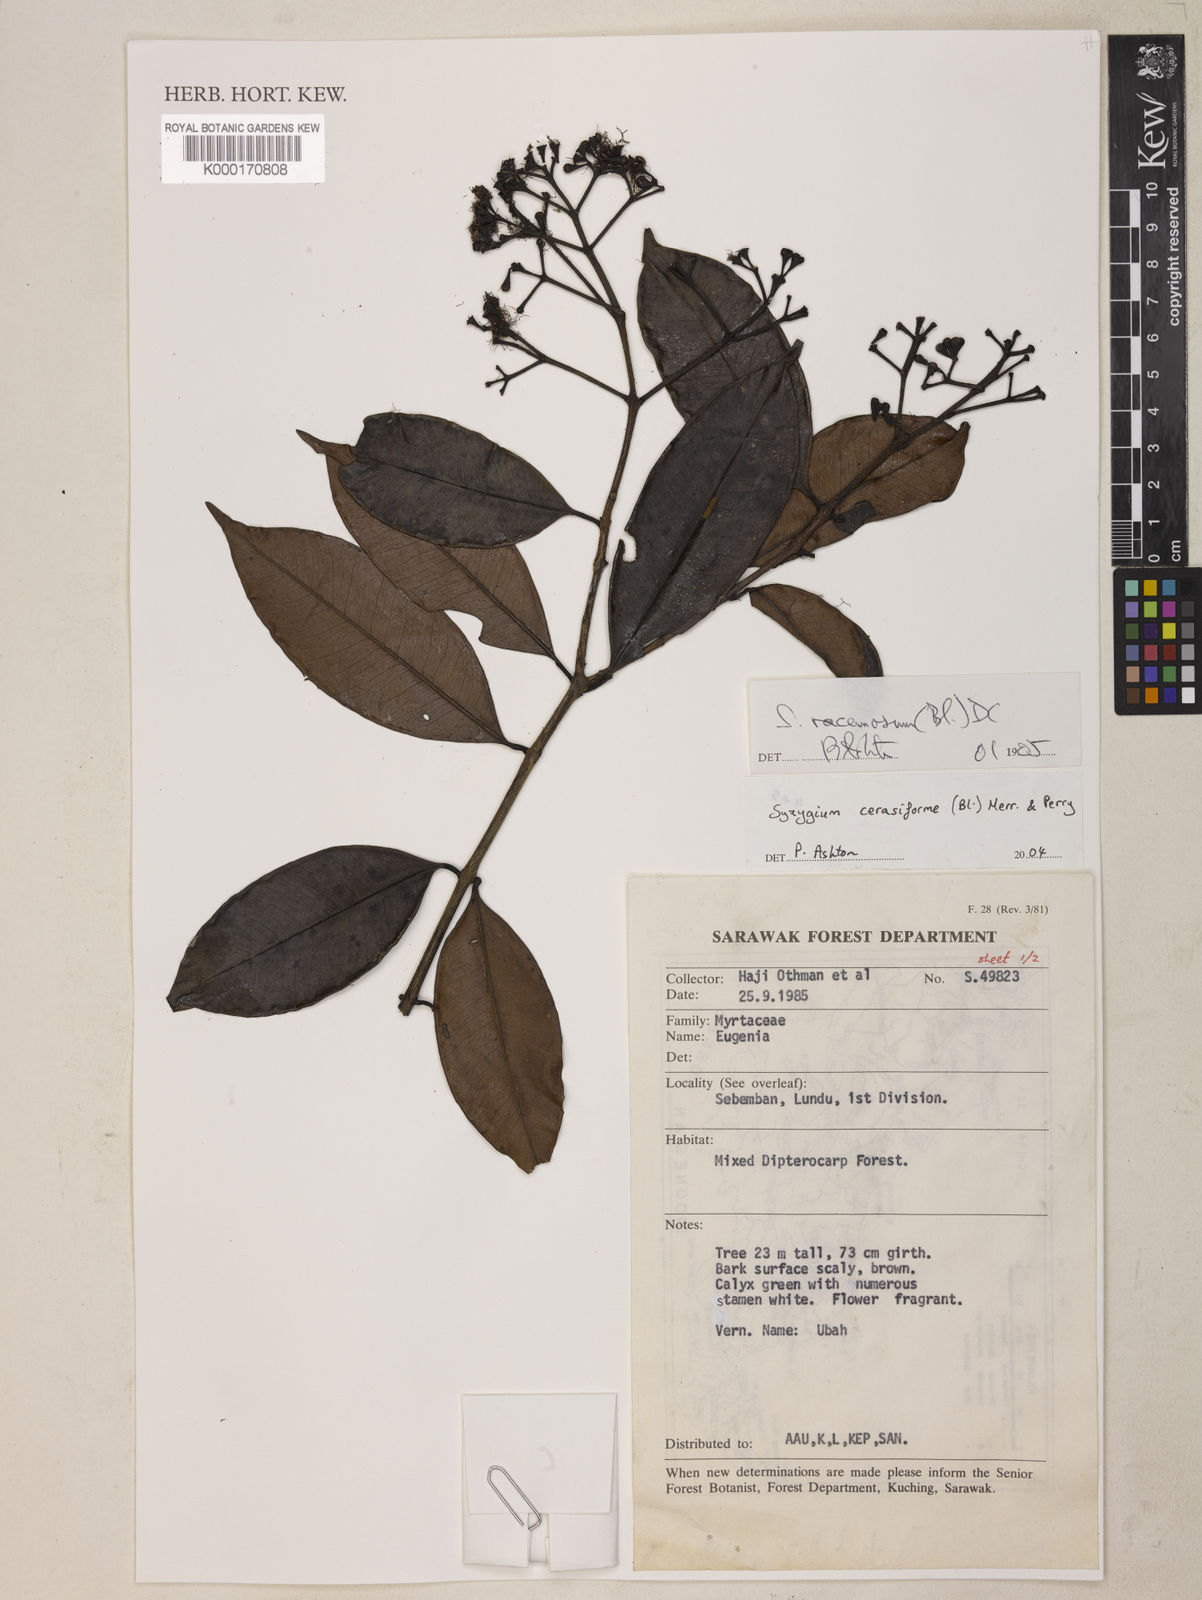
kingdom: Plantae
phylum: Tracheophyta
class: Magnoliopsida
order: Myrtales
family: Myrtaceae
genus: Syzygium
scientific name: Syzygium racemosum
